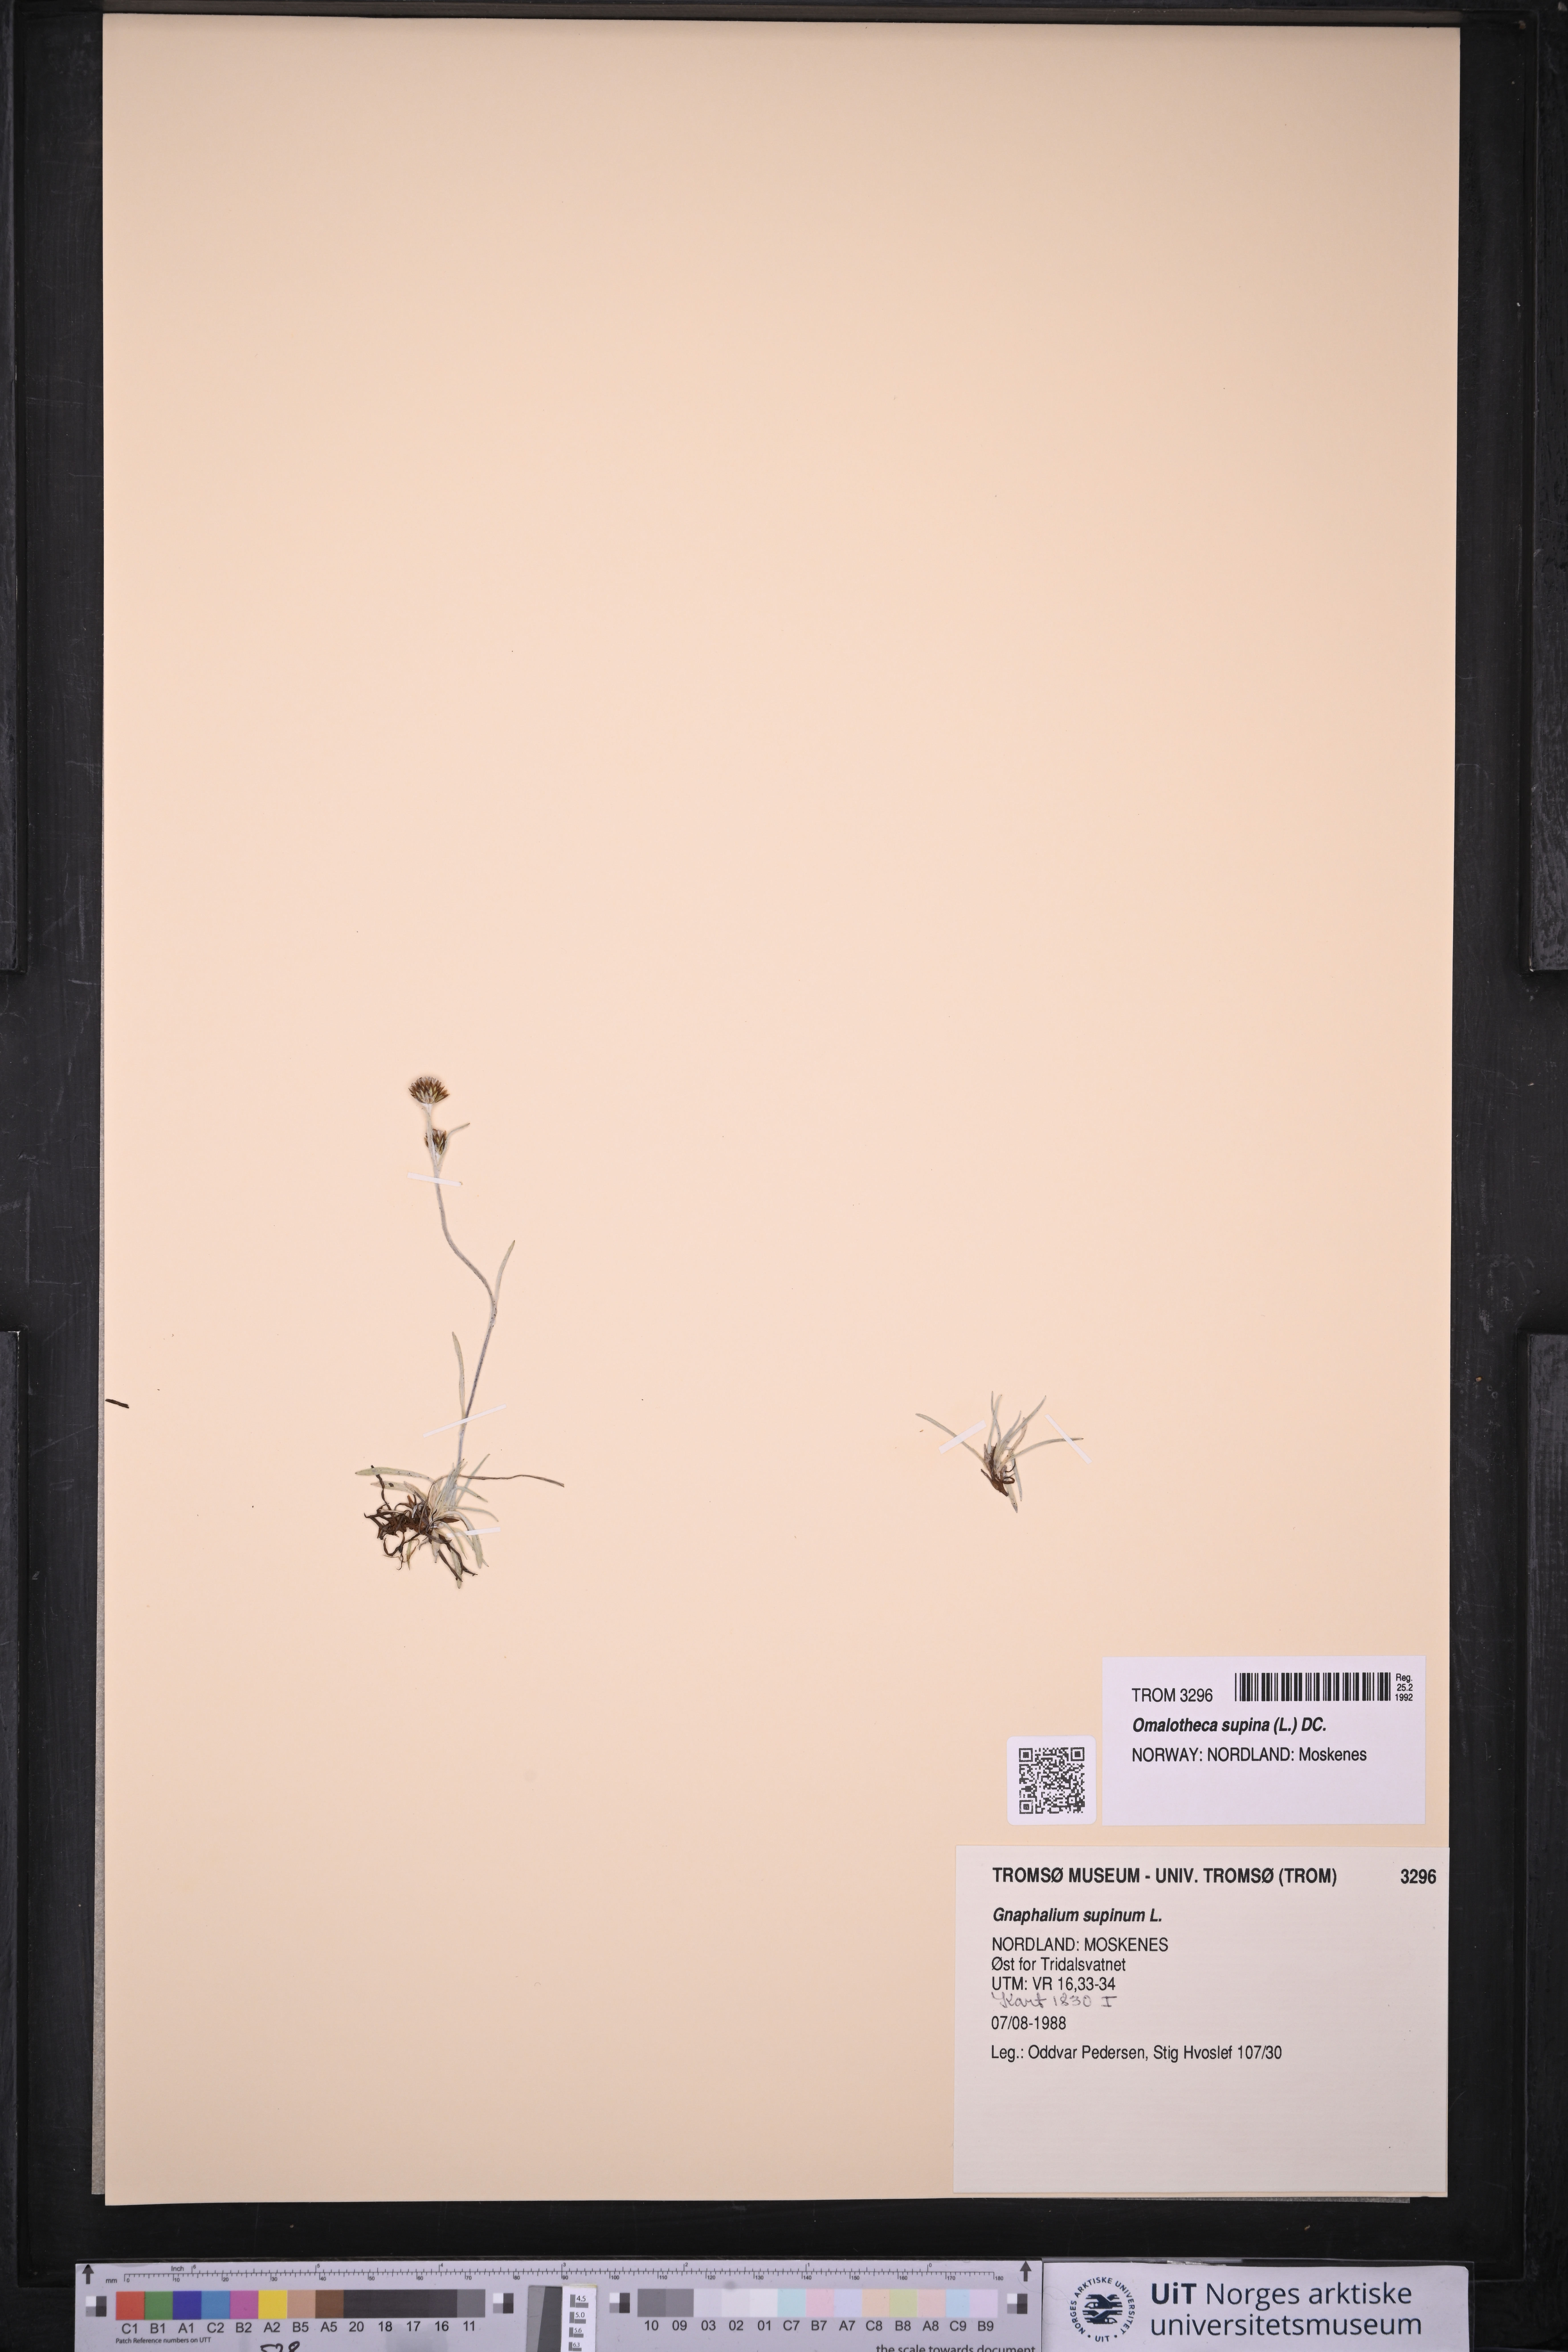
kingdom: Plantae
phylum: Tracheophyta
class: Magnoliopsida
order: Asterales
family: Asteraceae
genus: Omalotheca
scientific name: Omalotheca supina
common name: Alpine arctic-cudweed
